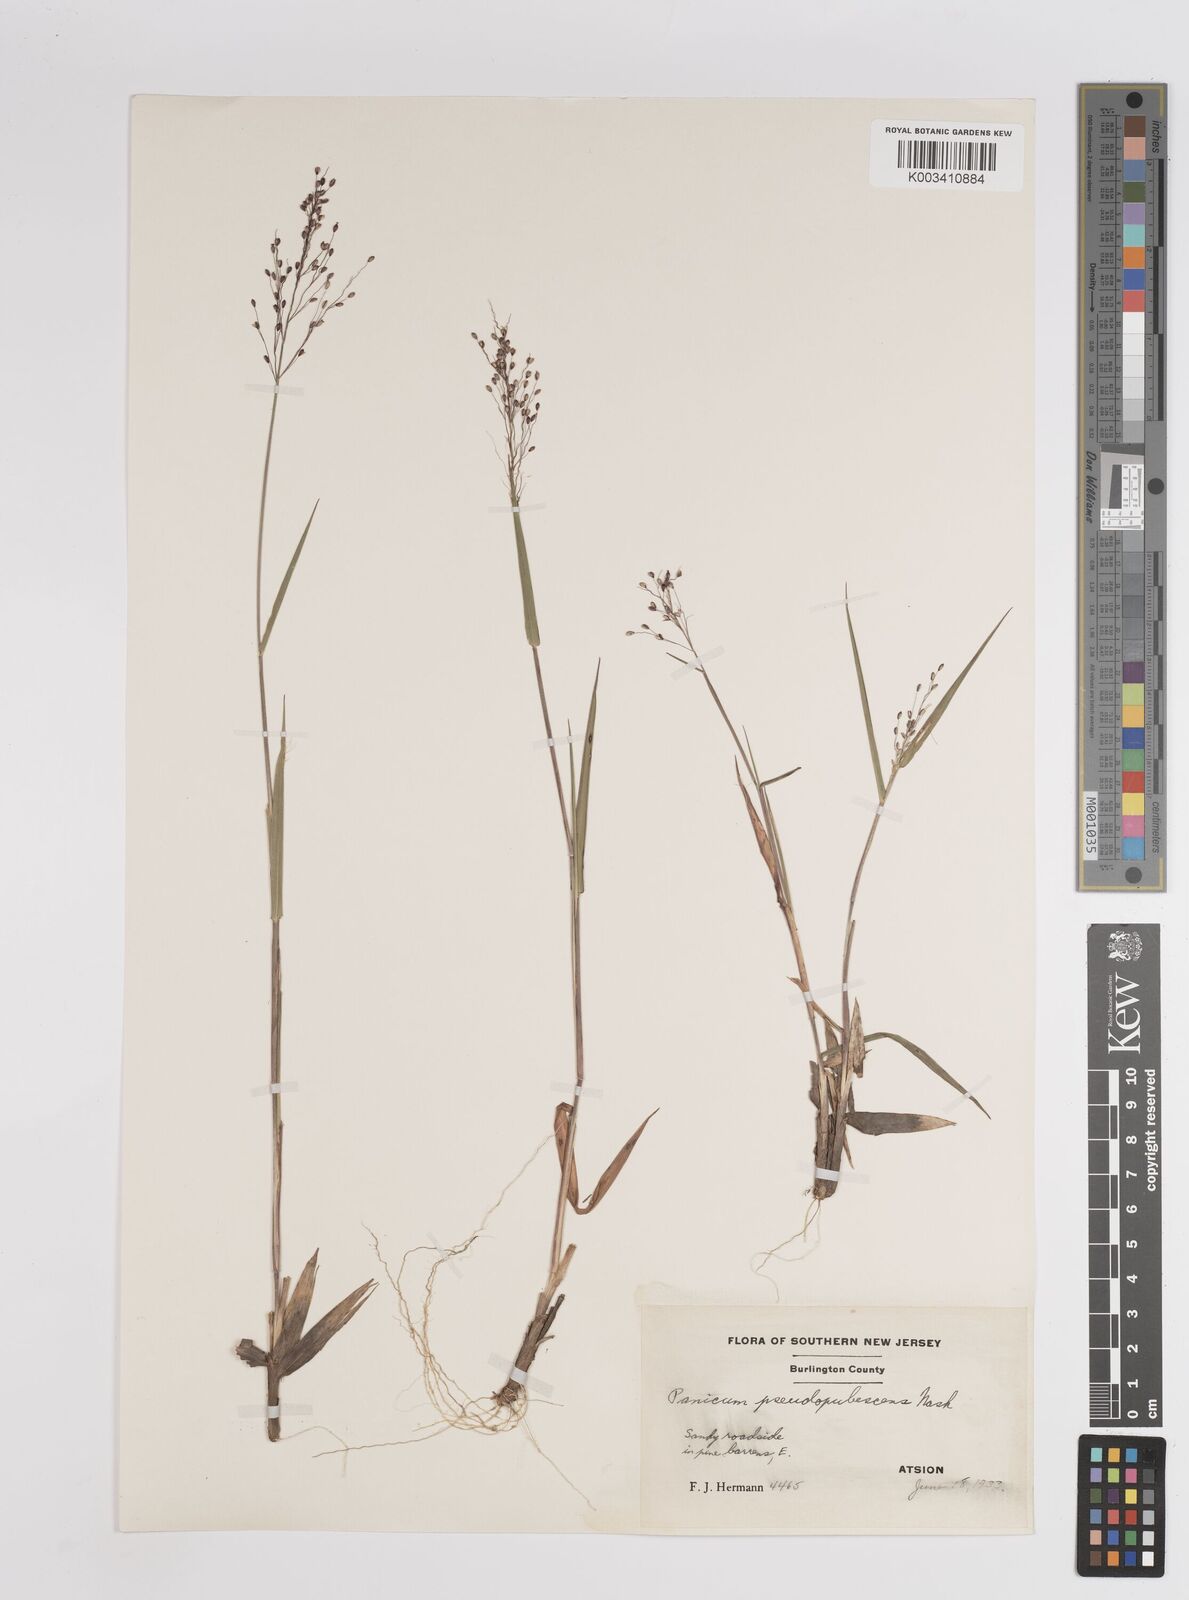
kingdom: Plantae
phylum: Tracheophyta
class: Liliopsida
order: Poales
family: Poaceae
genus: Dichanthelium
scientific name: Dichanthelium villosissimum
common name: White-haired panicgrass
